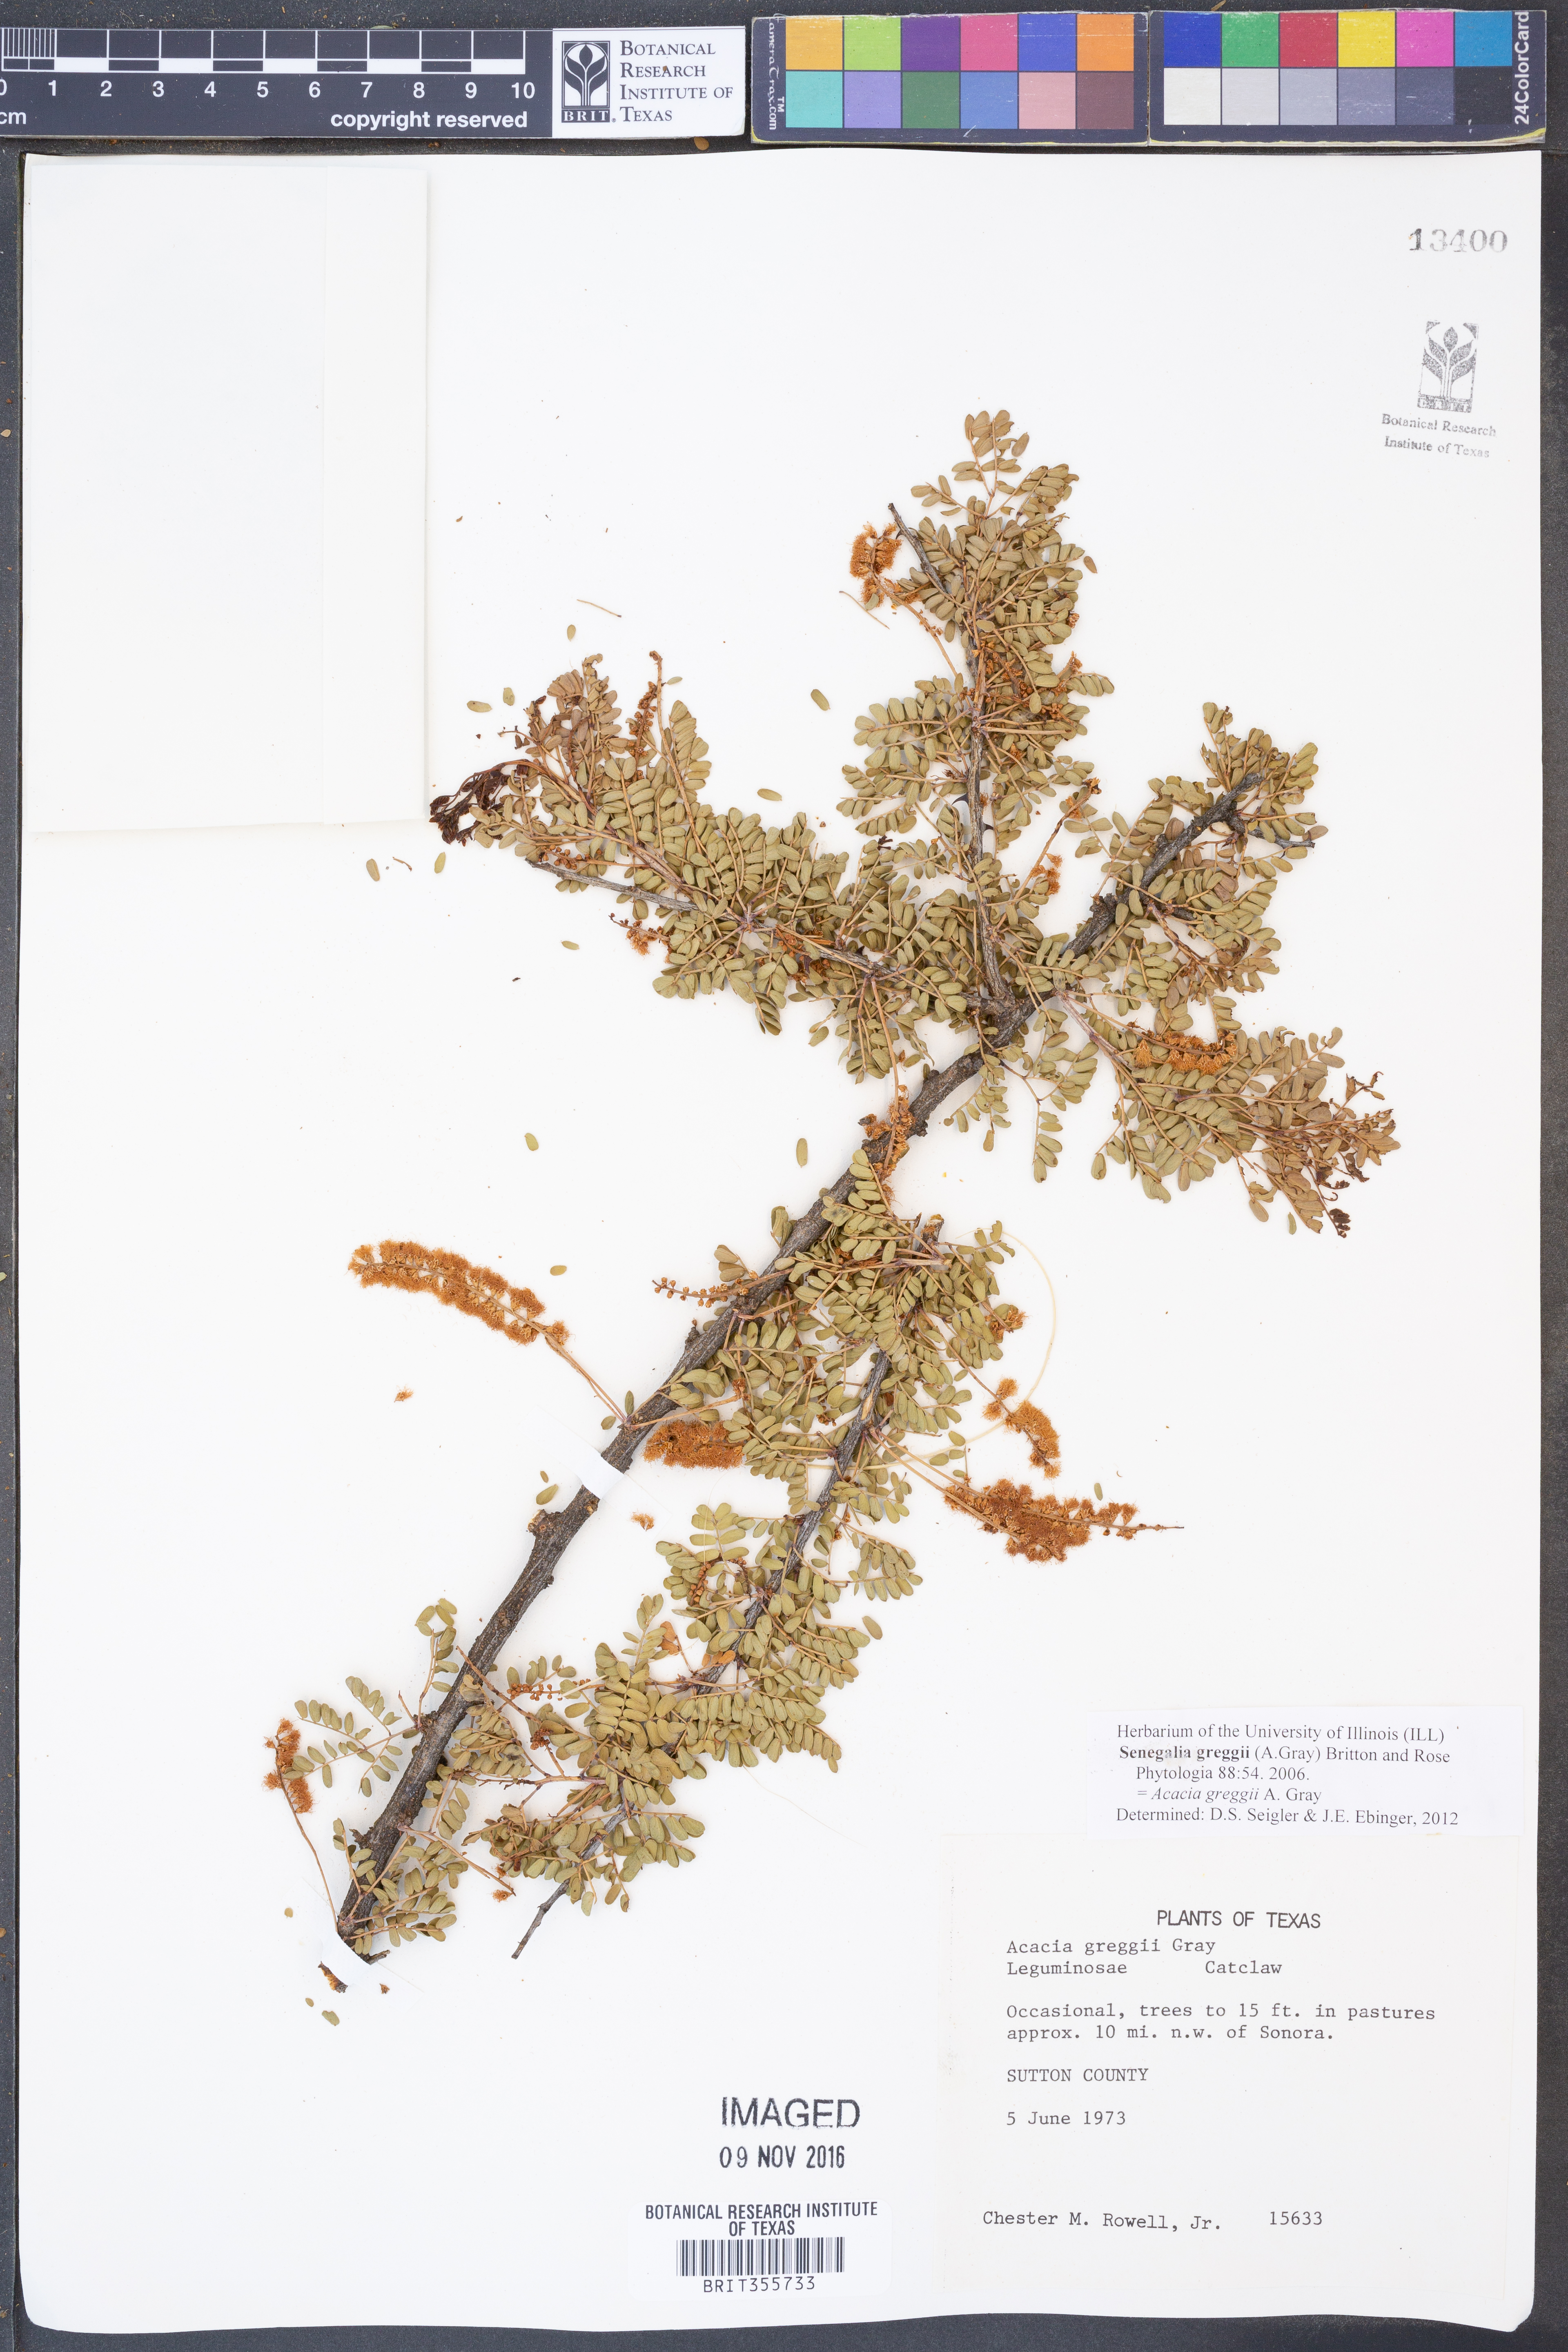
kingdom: Plantae
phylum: Tracheophyta
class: Magnoliopsida
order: Fabales
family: Fabaceae
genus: Senegalia
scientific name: Senegalia greggii
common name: Texas-mimosa
